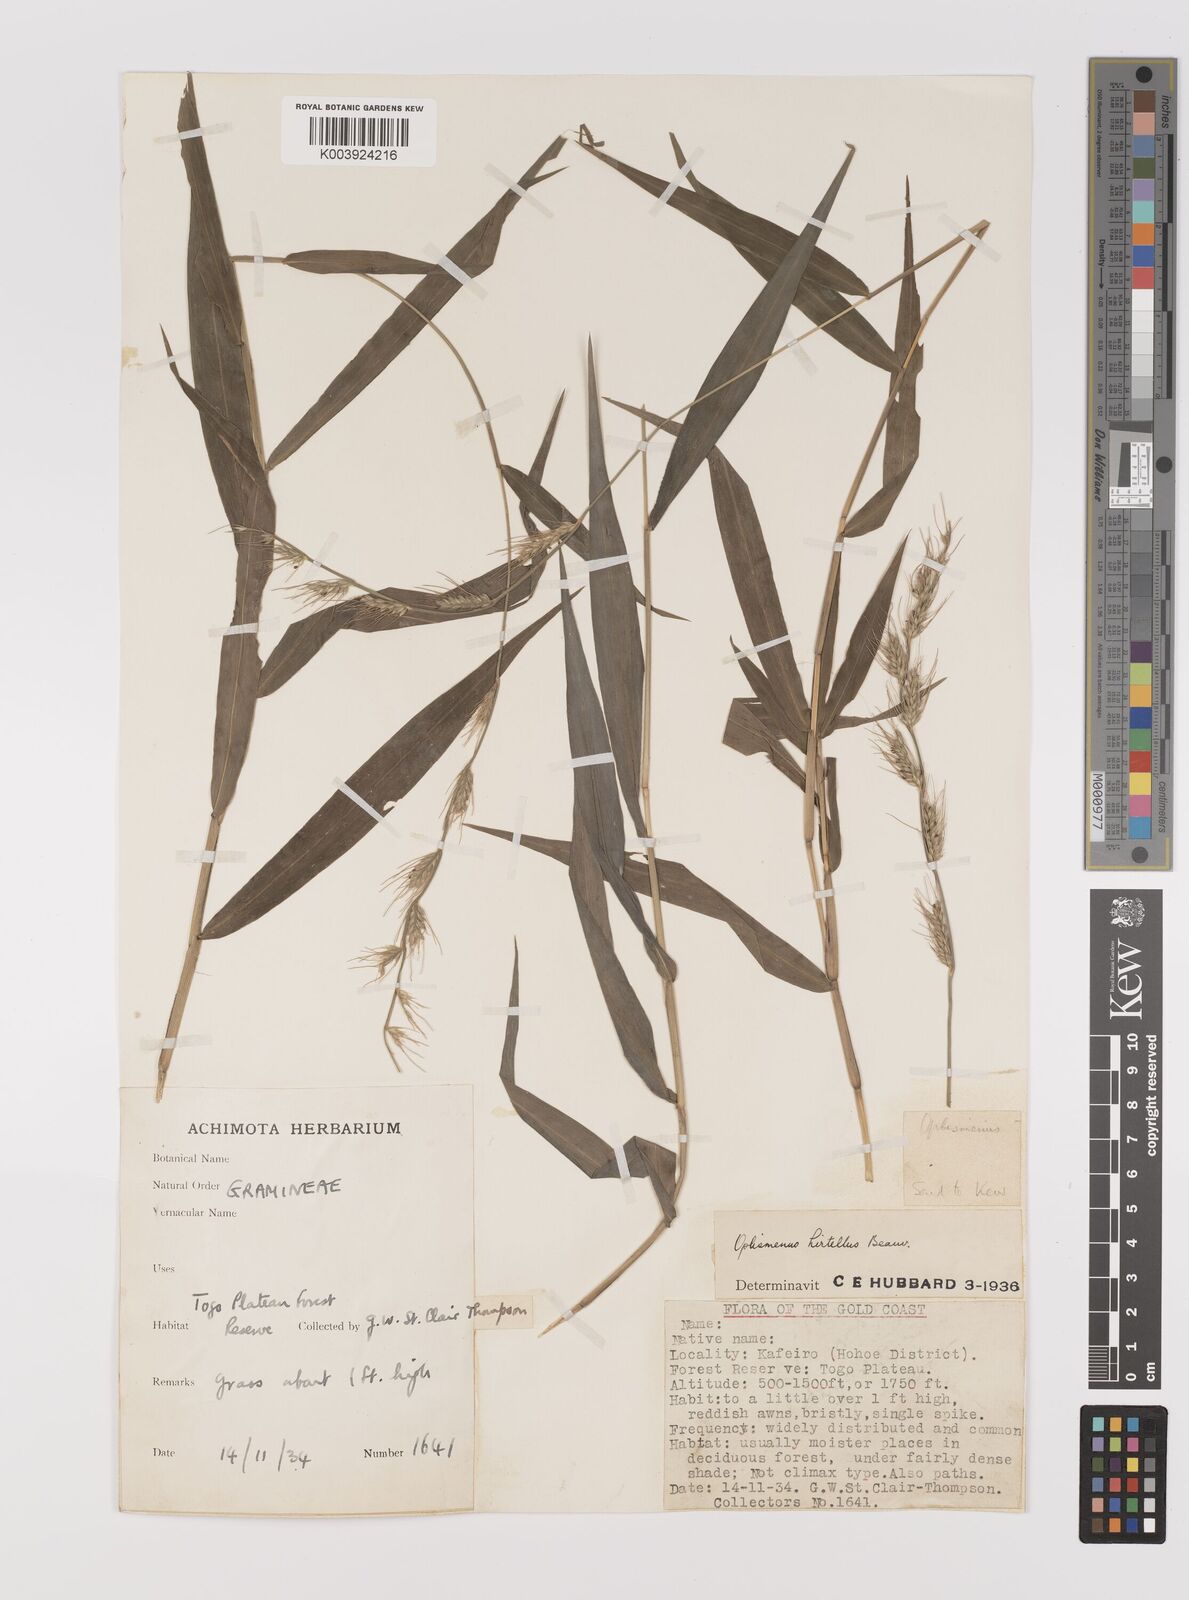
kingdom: Plantae
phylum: Tracheophyta
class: Liliopsida
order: Poales
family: Poaceae
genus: Oplismenus
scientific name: Oplismenus hirtellus
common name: Basketgrass
